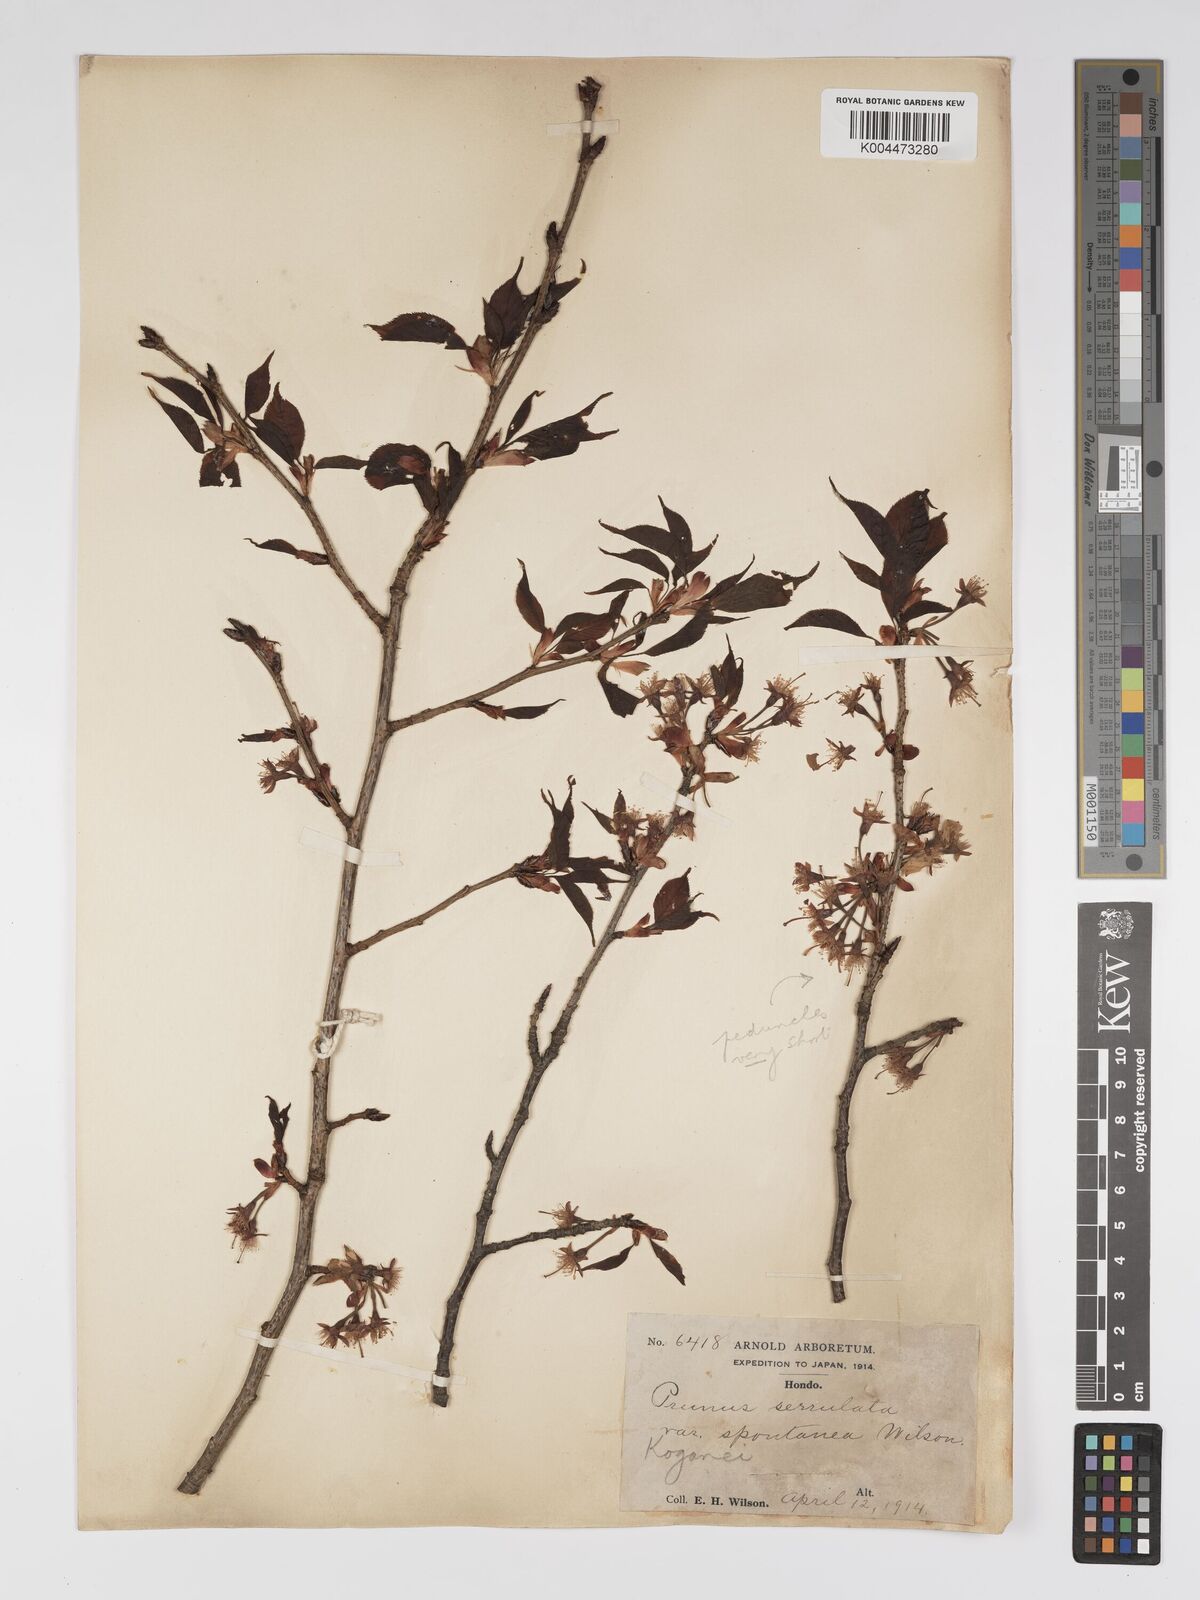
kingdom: Plantae
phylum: Tracheophyta
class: Magnoliopsida
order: Rosales
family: Rosaceae
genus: Prunus
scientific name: Prunus serrulata
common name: Japanese cherry
